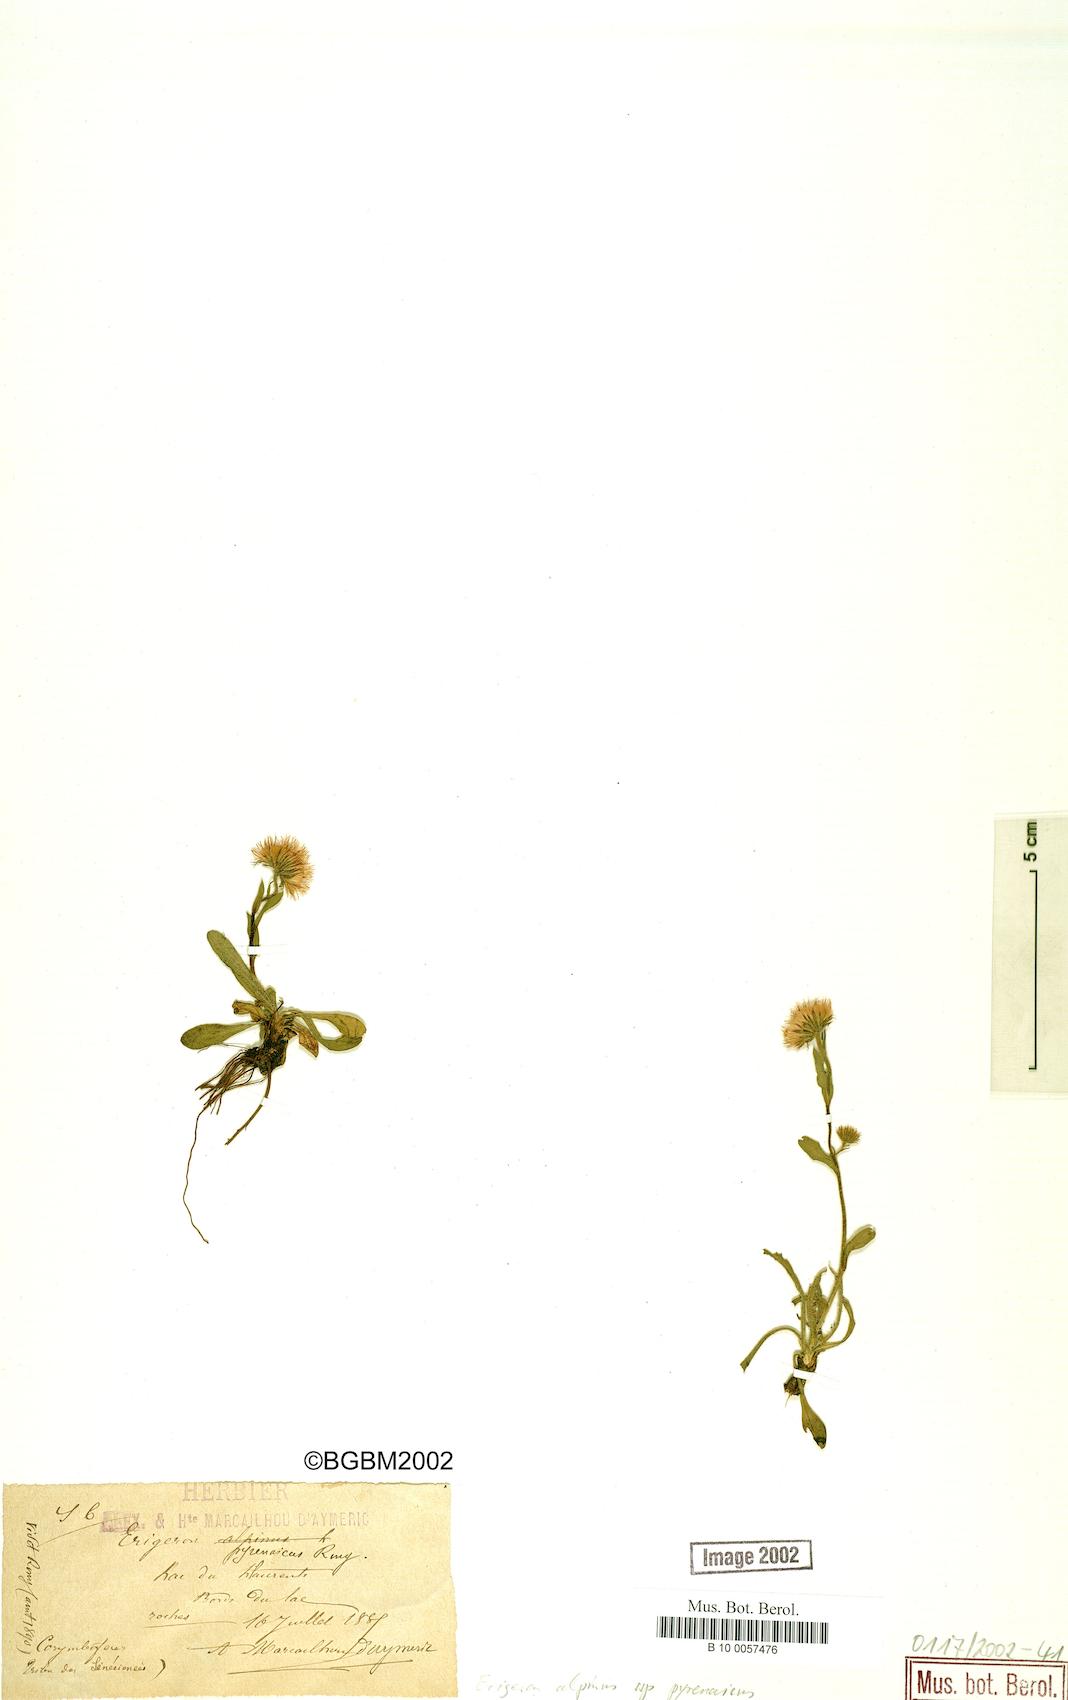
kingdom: Plantae
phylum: Tracheophyta
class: Magnoliopsida
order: Asterales
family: Asteraceae
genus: Erigeron
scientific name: Erigeron uniflorus
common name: Northern daisy
